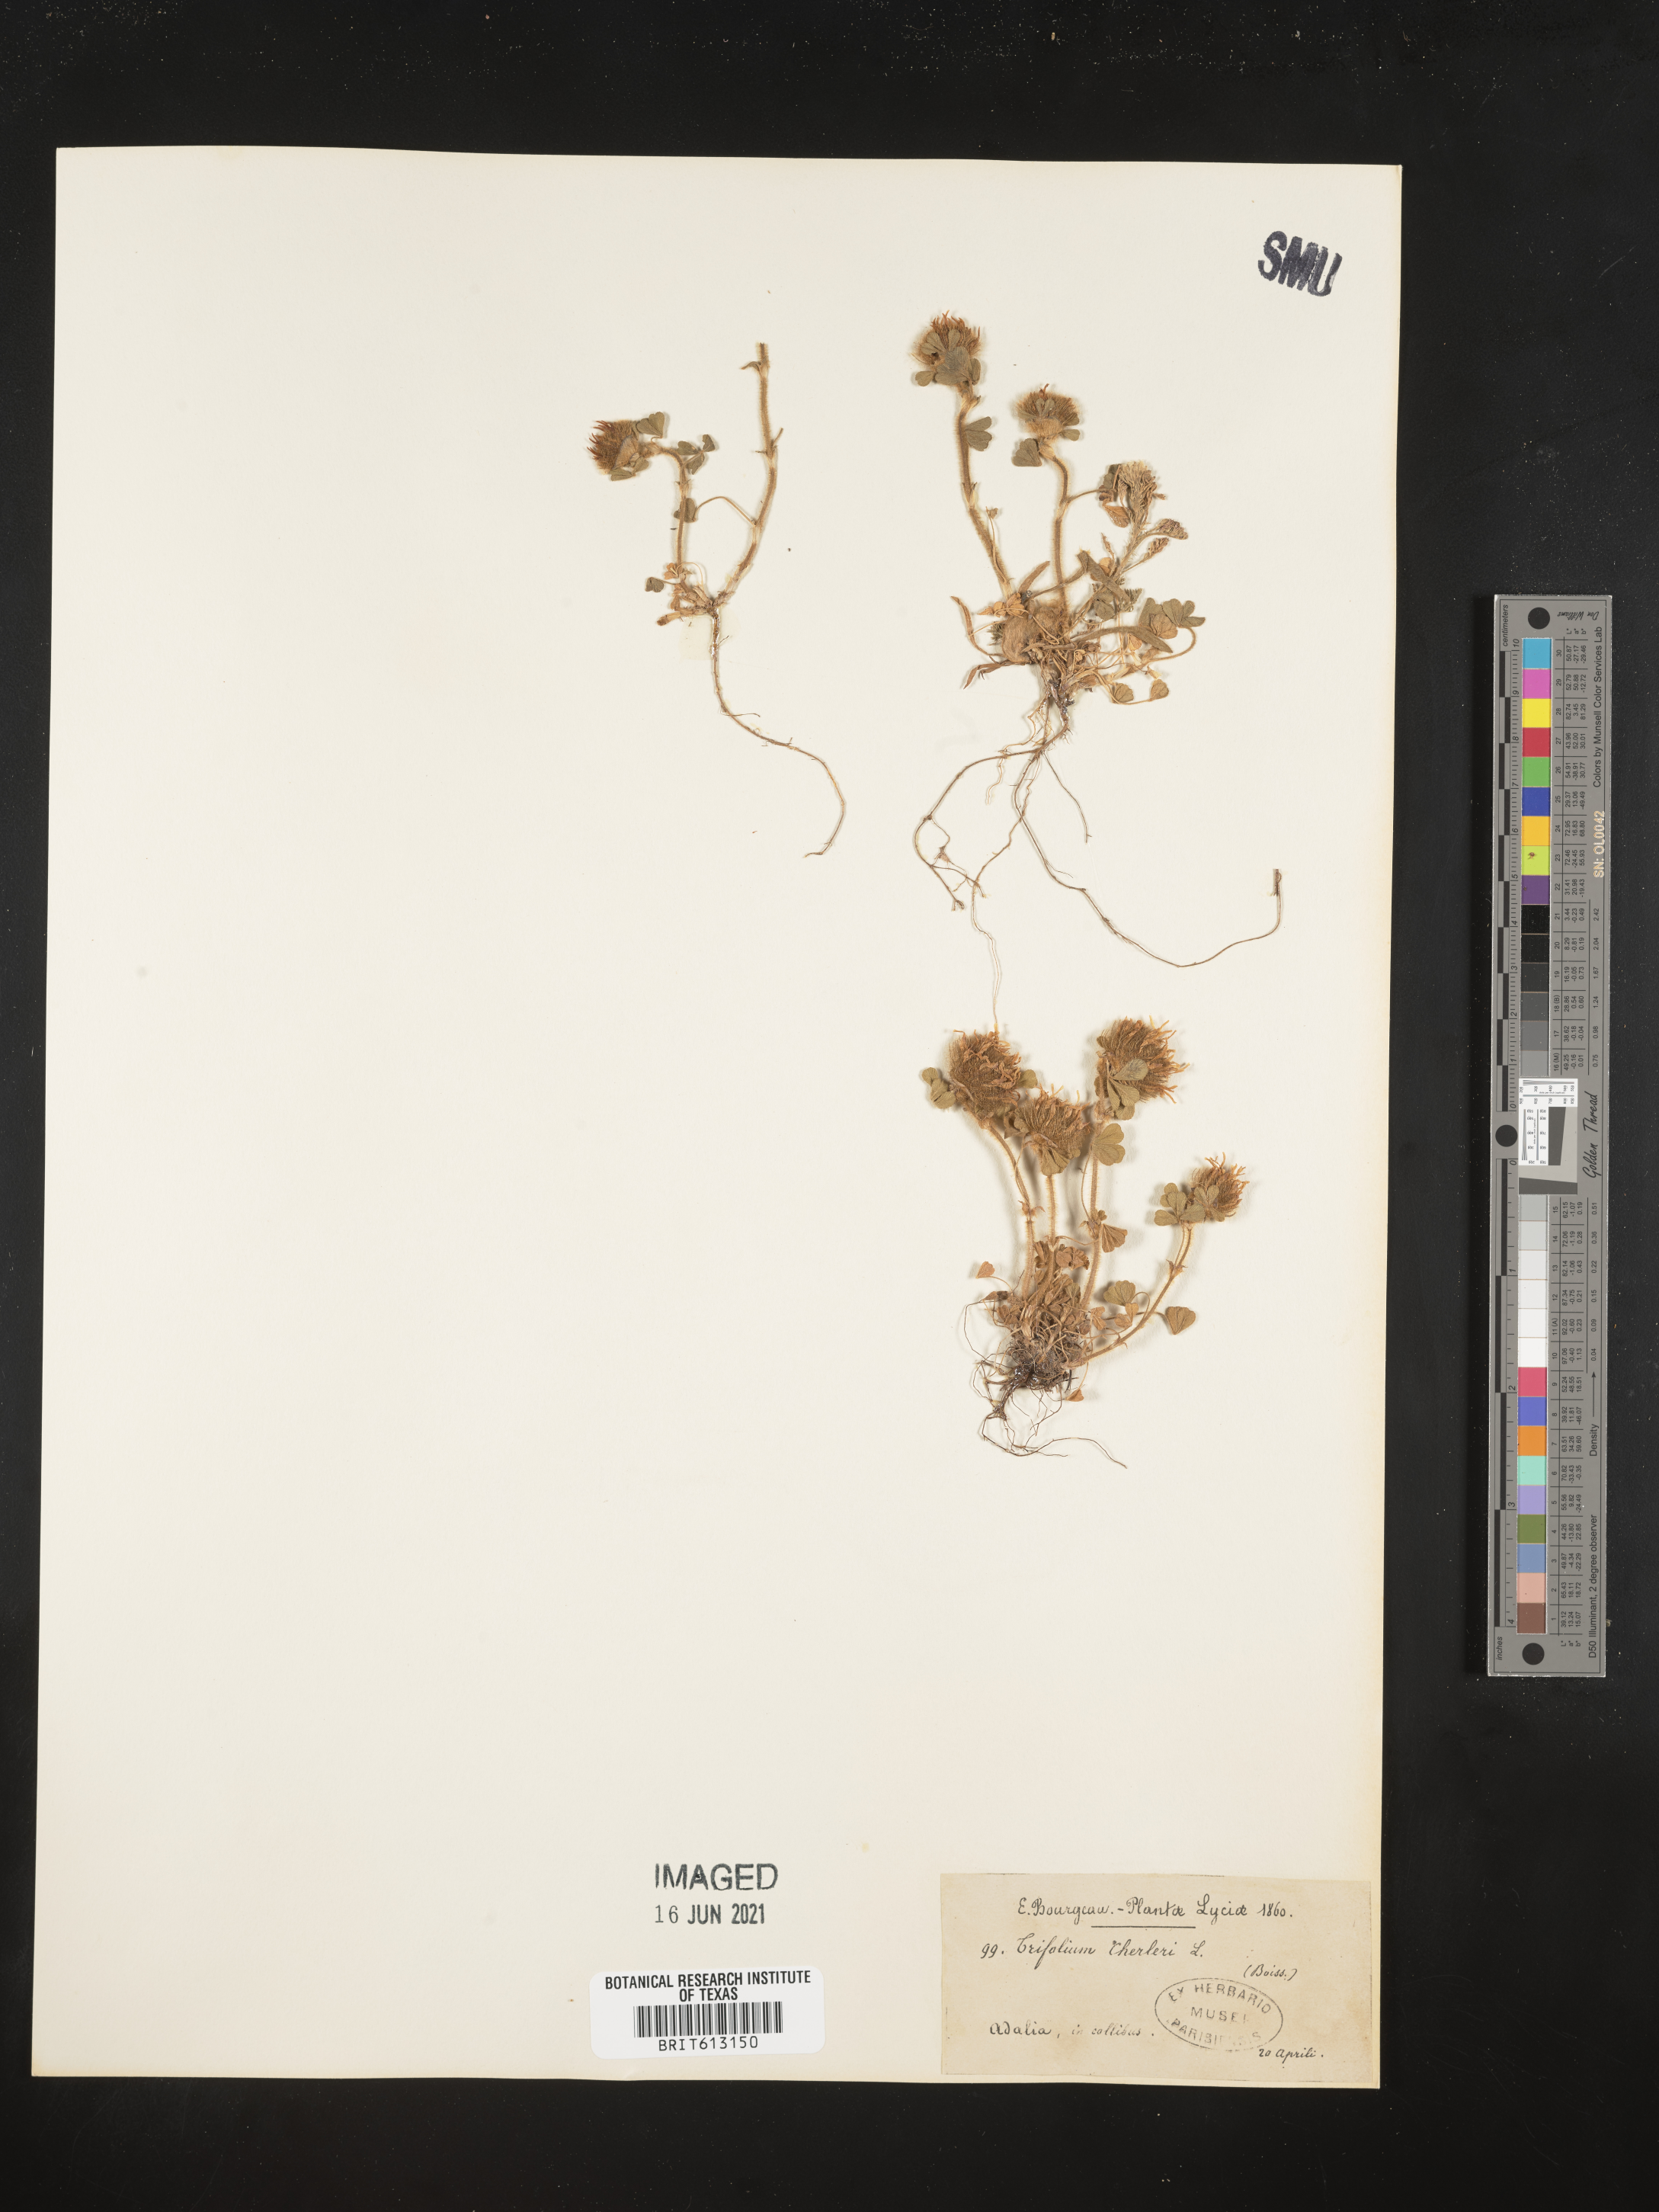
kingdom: Plantae
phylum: Tracheophyta
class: Magnoliopsida
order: Fabales
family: Fabaceae
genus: Trifolium
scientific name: Trifolium cherleri
